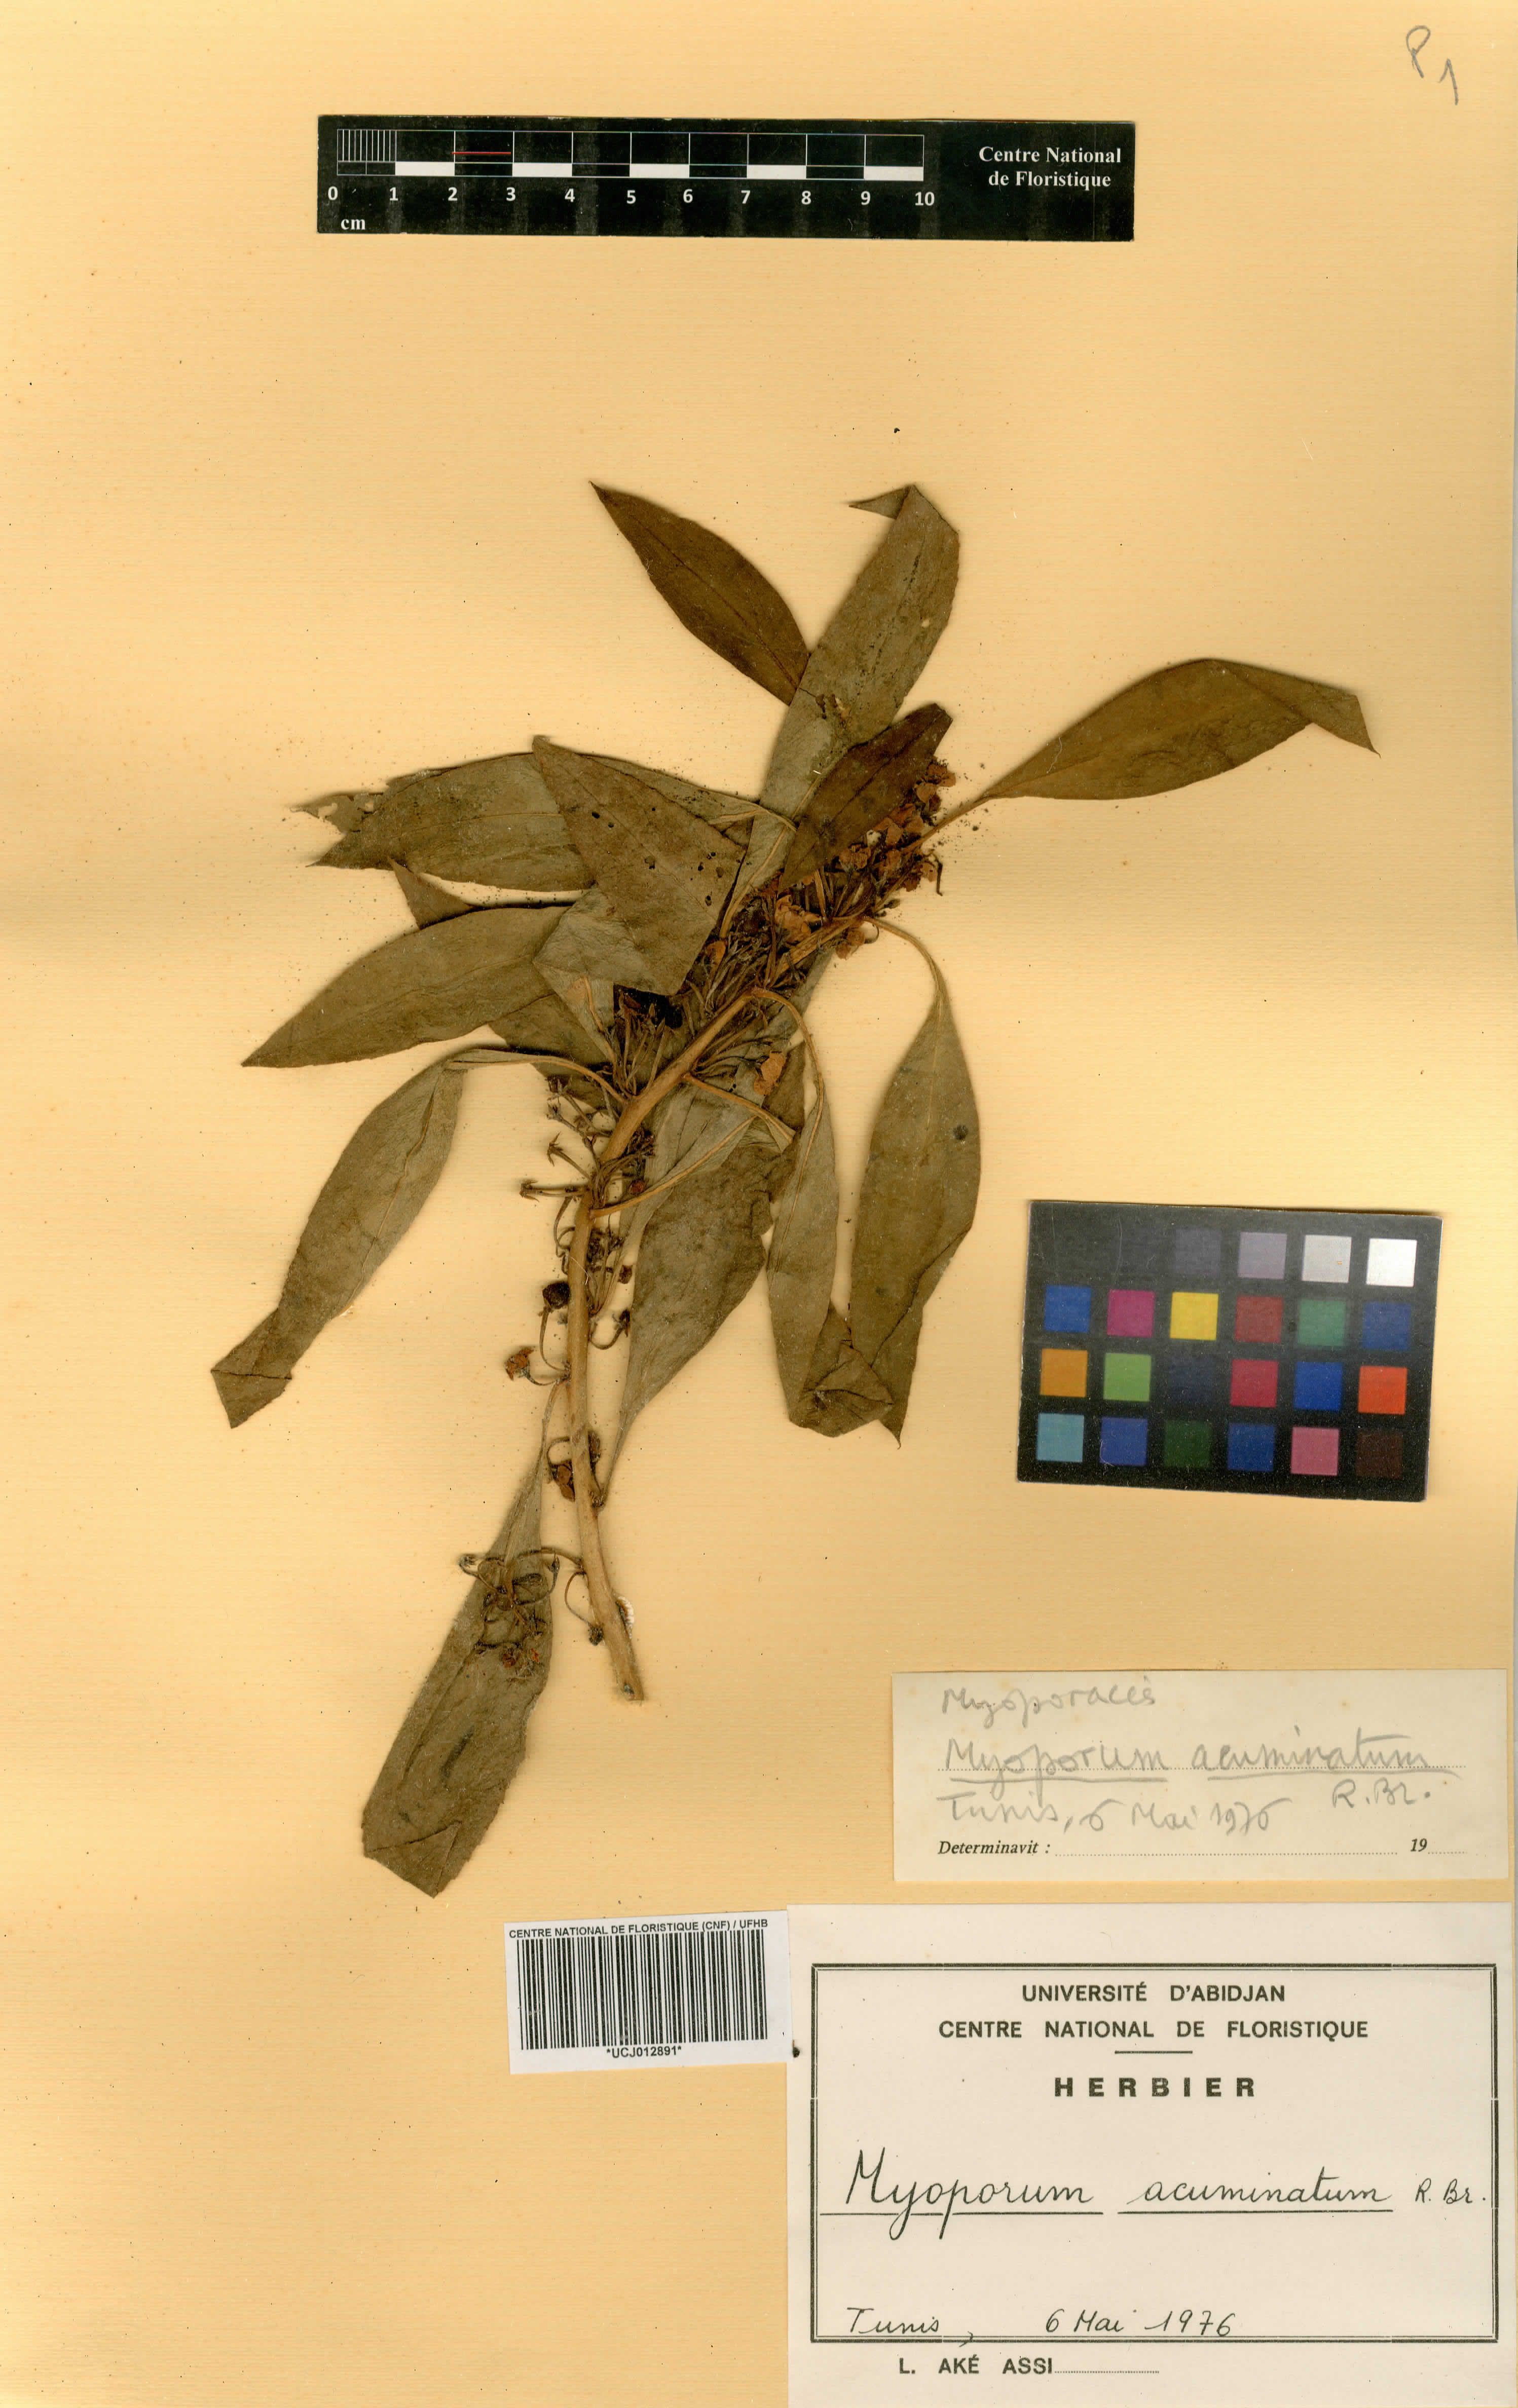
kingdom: Plantae
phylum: Tracheophyta
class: Magnoliopsida
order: Lamiales
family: Scrophulariaceae
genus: Myoporum
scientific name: Myoporum acuminatum
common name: Pointed boobialla
